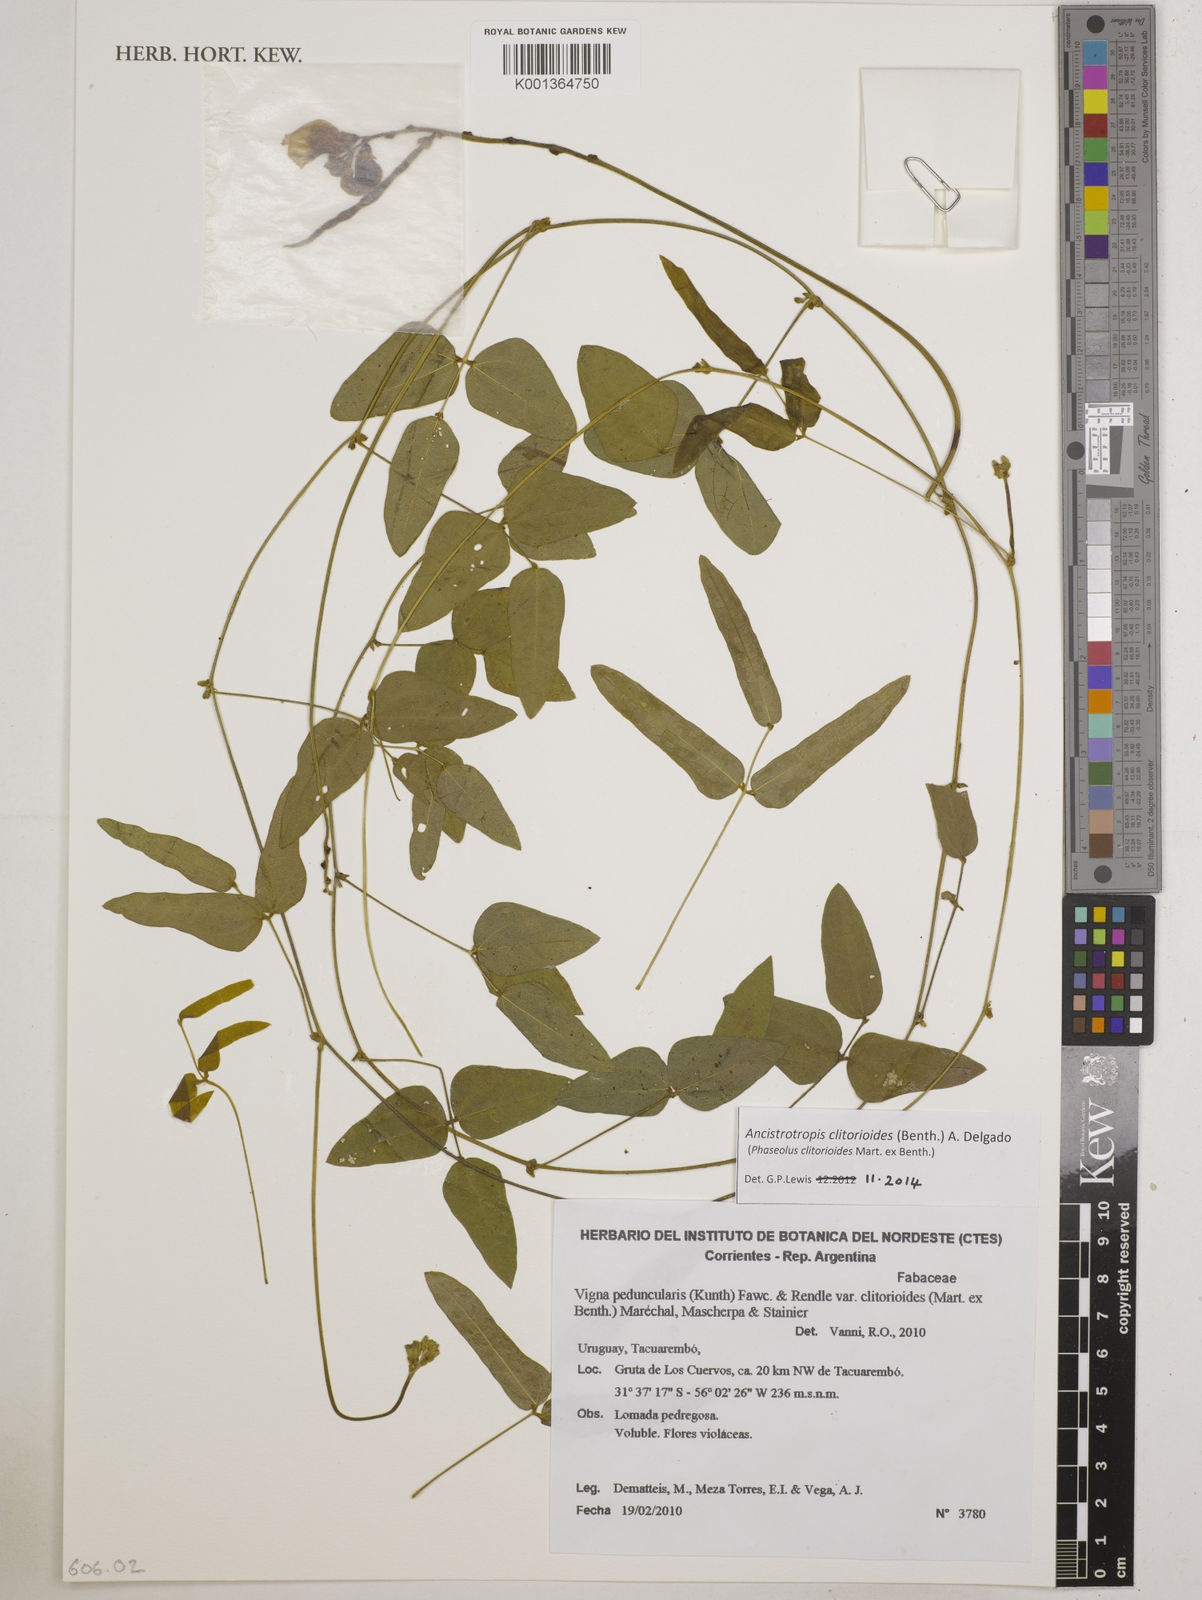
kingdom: Plantae
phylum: Tracheophyta
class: Magnoliopsida
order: Fabales
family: Fabaceae
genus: Ancistrotropis
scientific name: Ancistrotropis clitorioides
